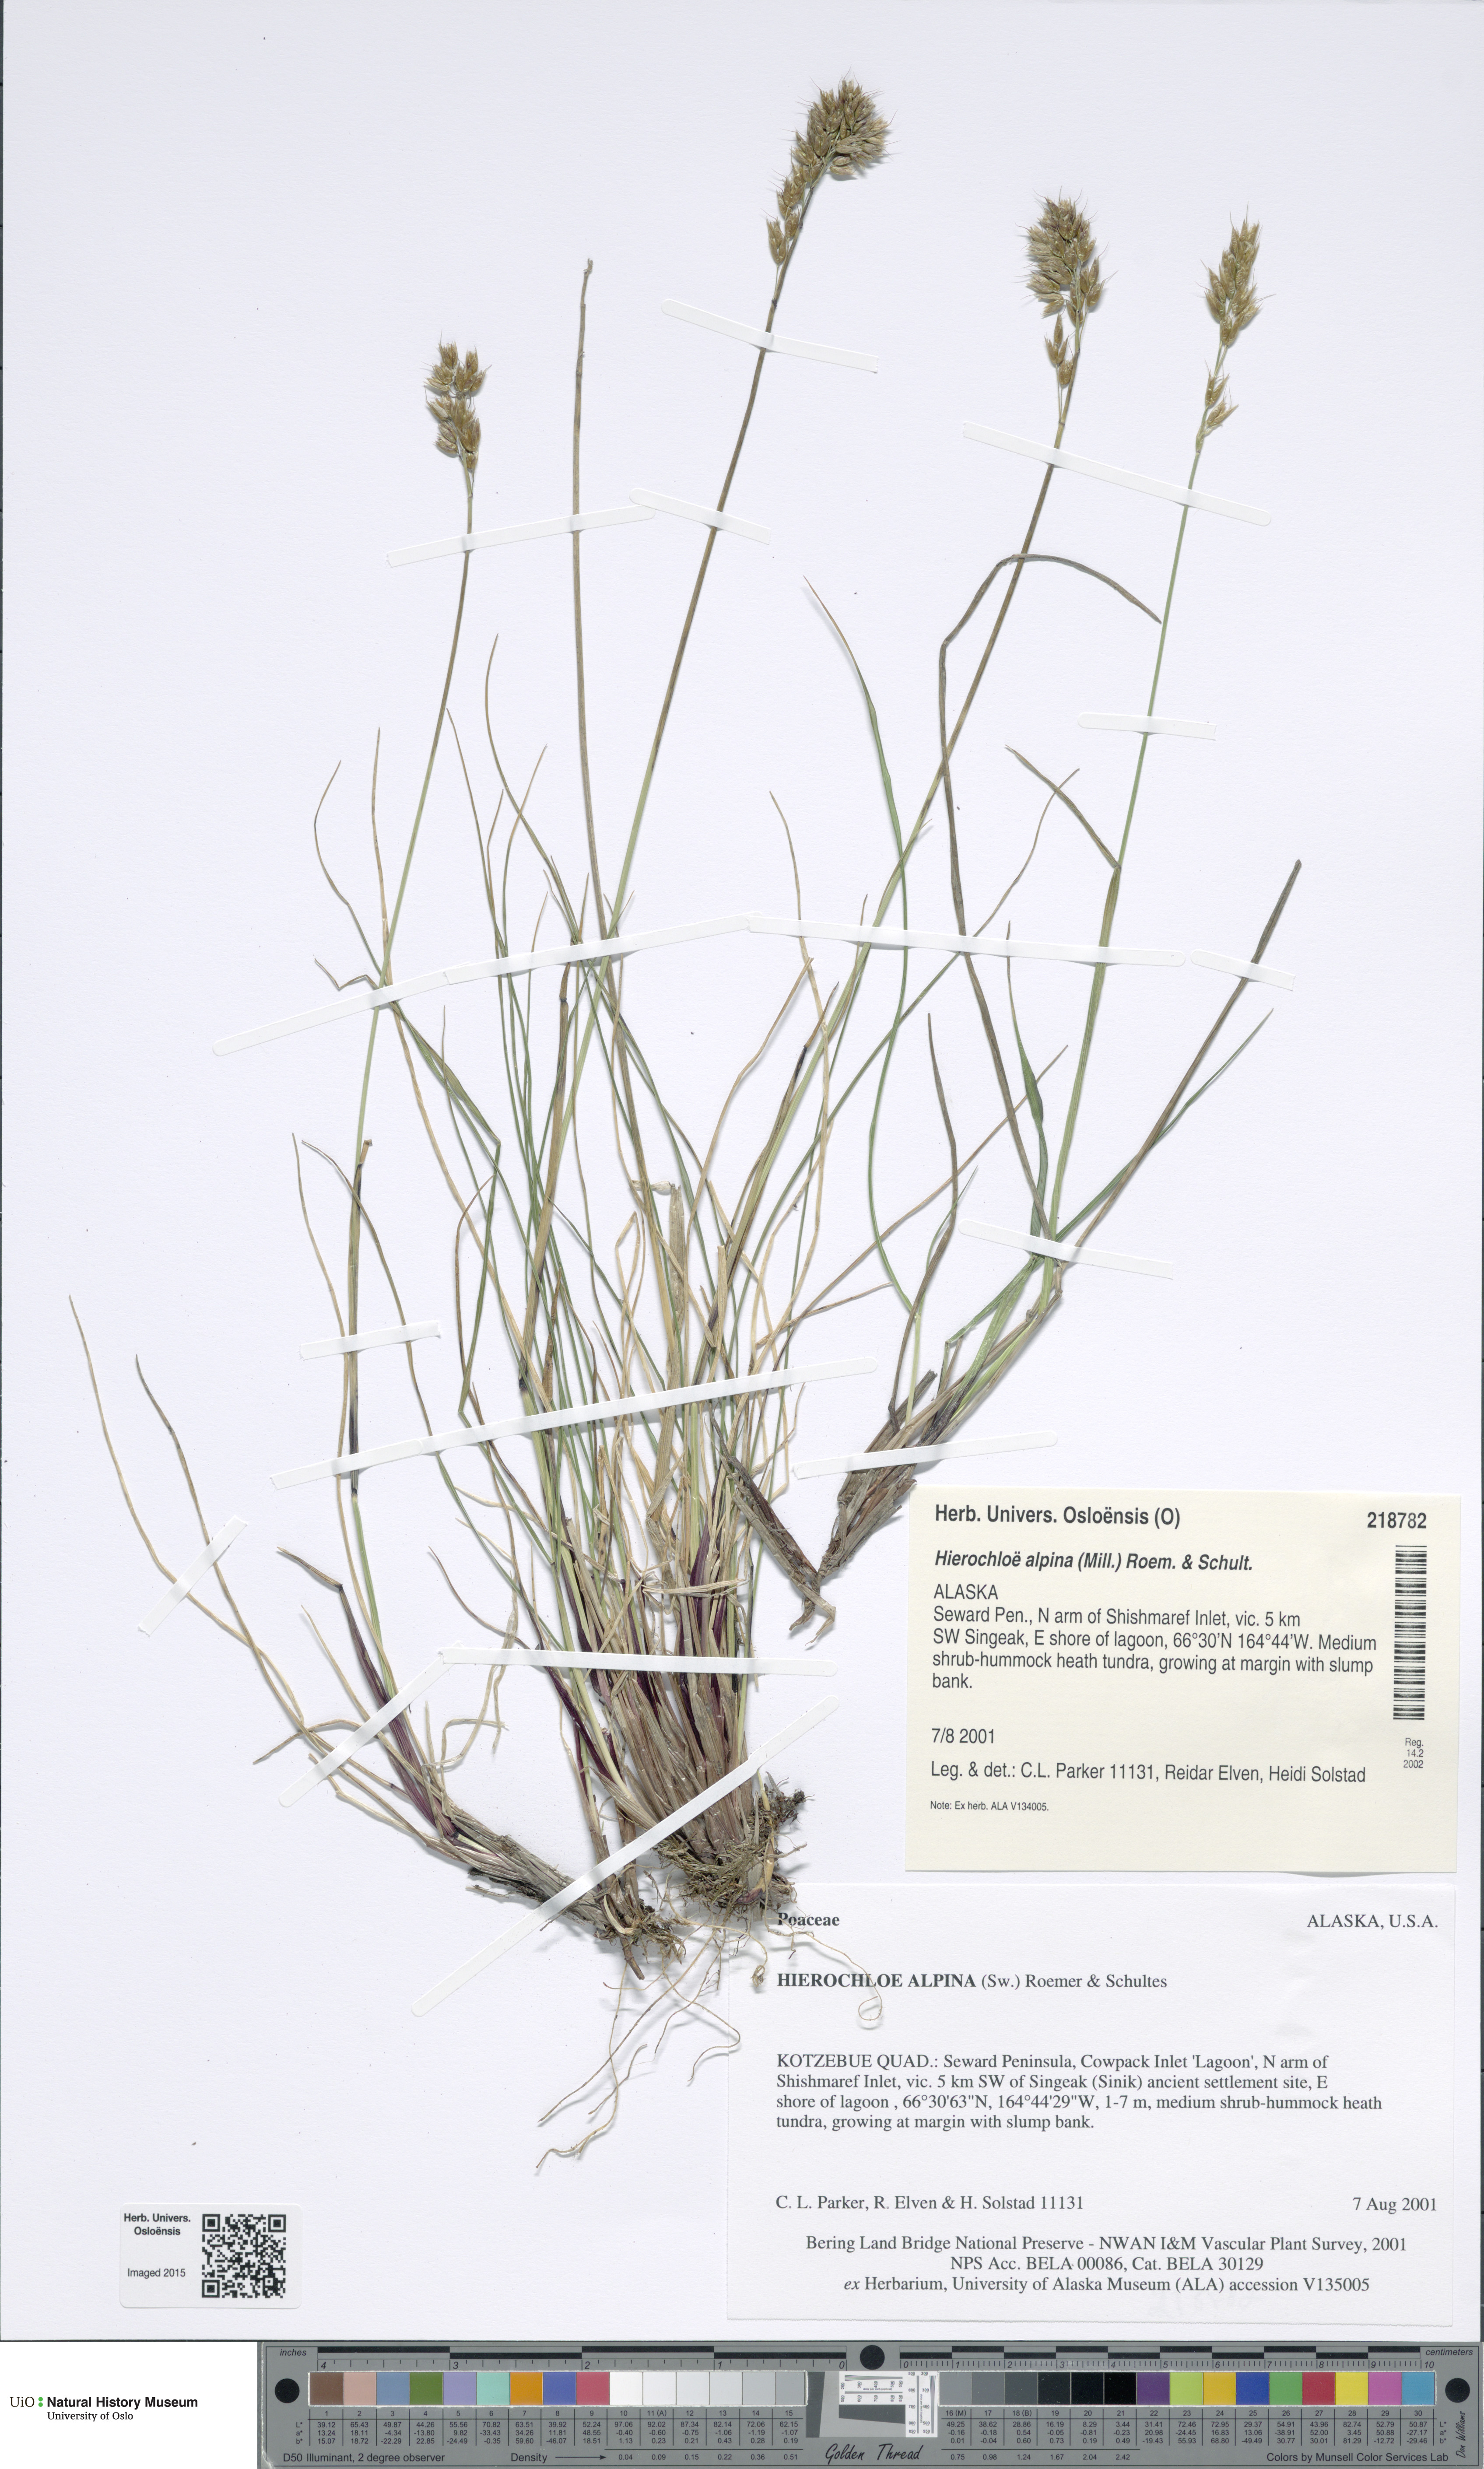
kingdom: Plantae
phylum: Tracheophyta
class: Liliopsida
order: Poales
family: Poaceae
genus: Anthoxanthum
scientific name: Anthoxanthum monticola
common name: Alpine sweetgrass
